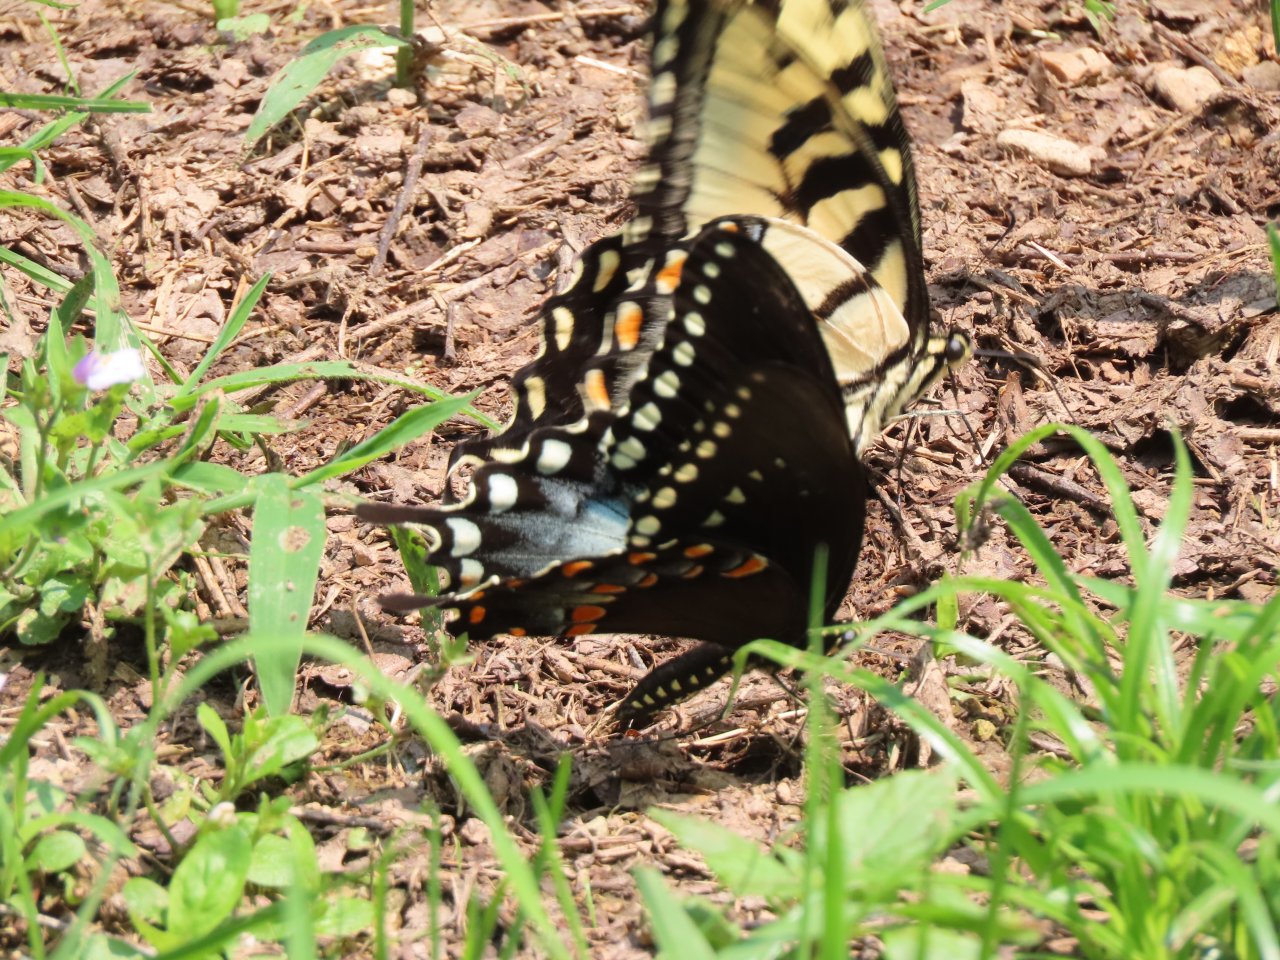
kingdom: Animalia
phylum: Arthropoda
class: Insecta
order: Lepidoptera
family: Papilionidae
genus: Pterourus
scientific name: Pterourus troilus
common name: Spicebush Swallowtail
